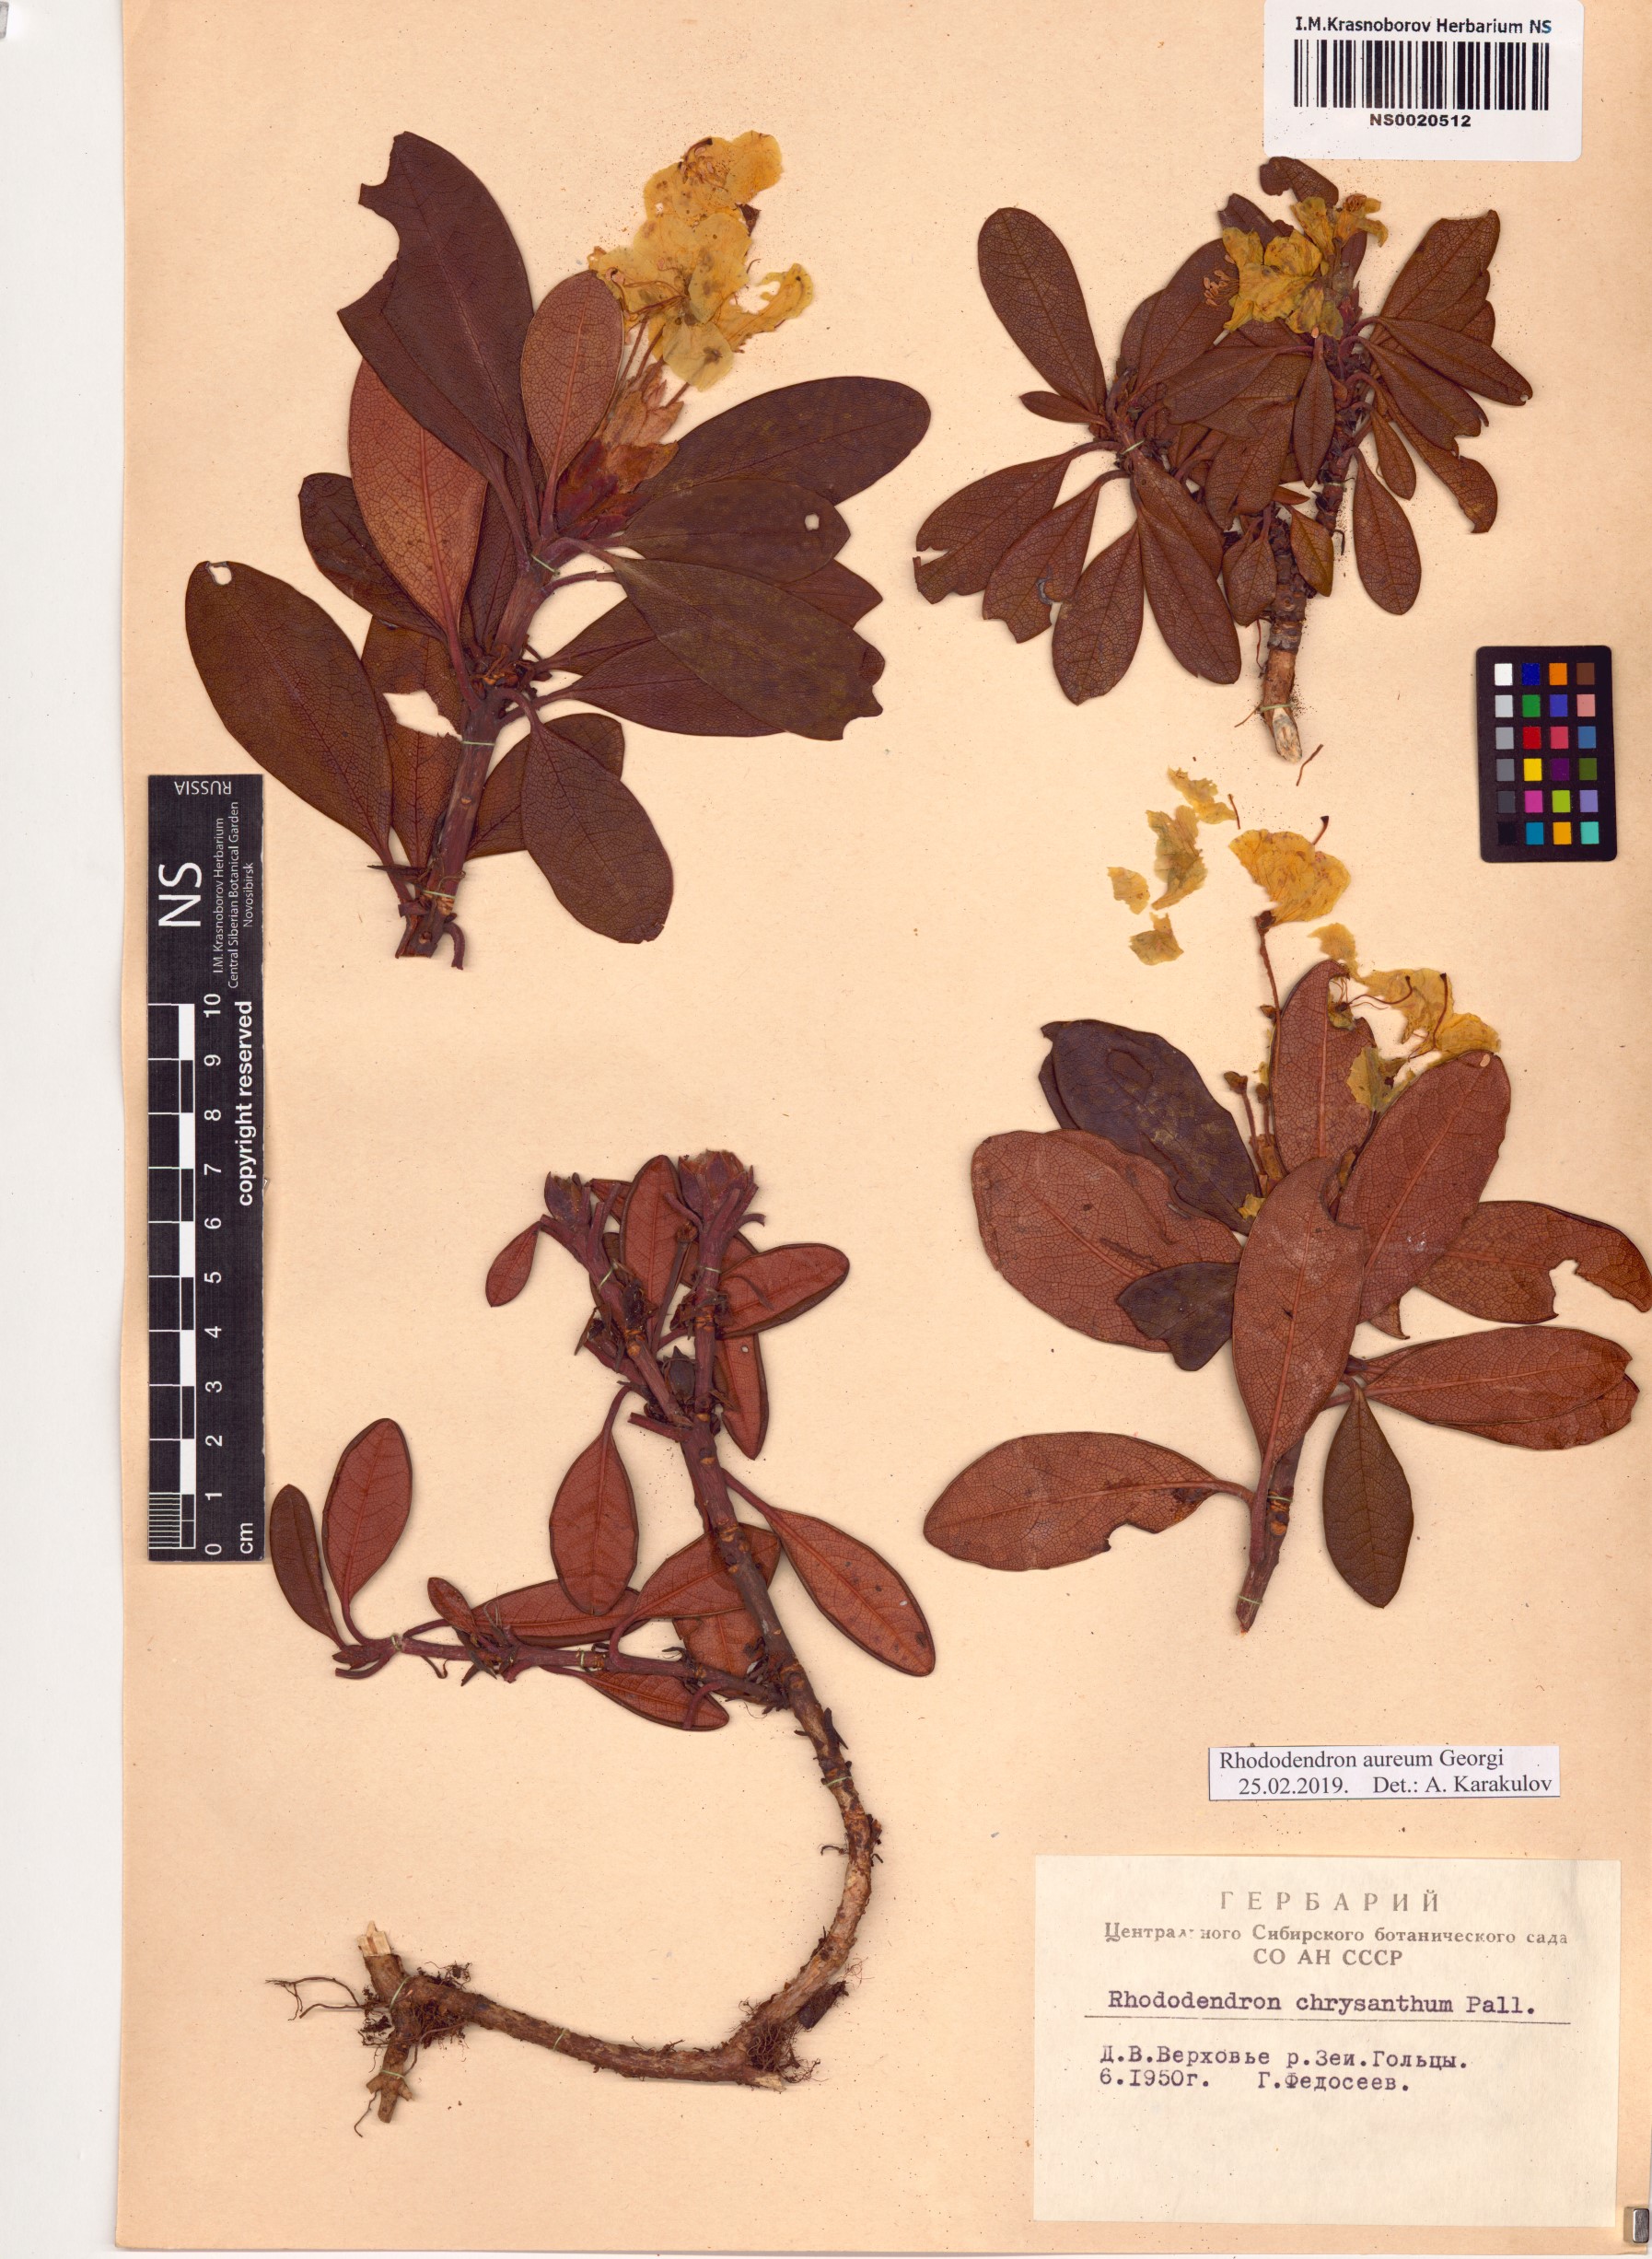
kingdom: Plantae
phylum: Tracheophyta
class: Magnoliopsida
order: Ericales
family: Ericaceae
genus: Rhododendron
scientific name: Rhododendron aureum
